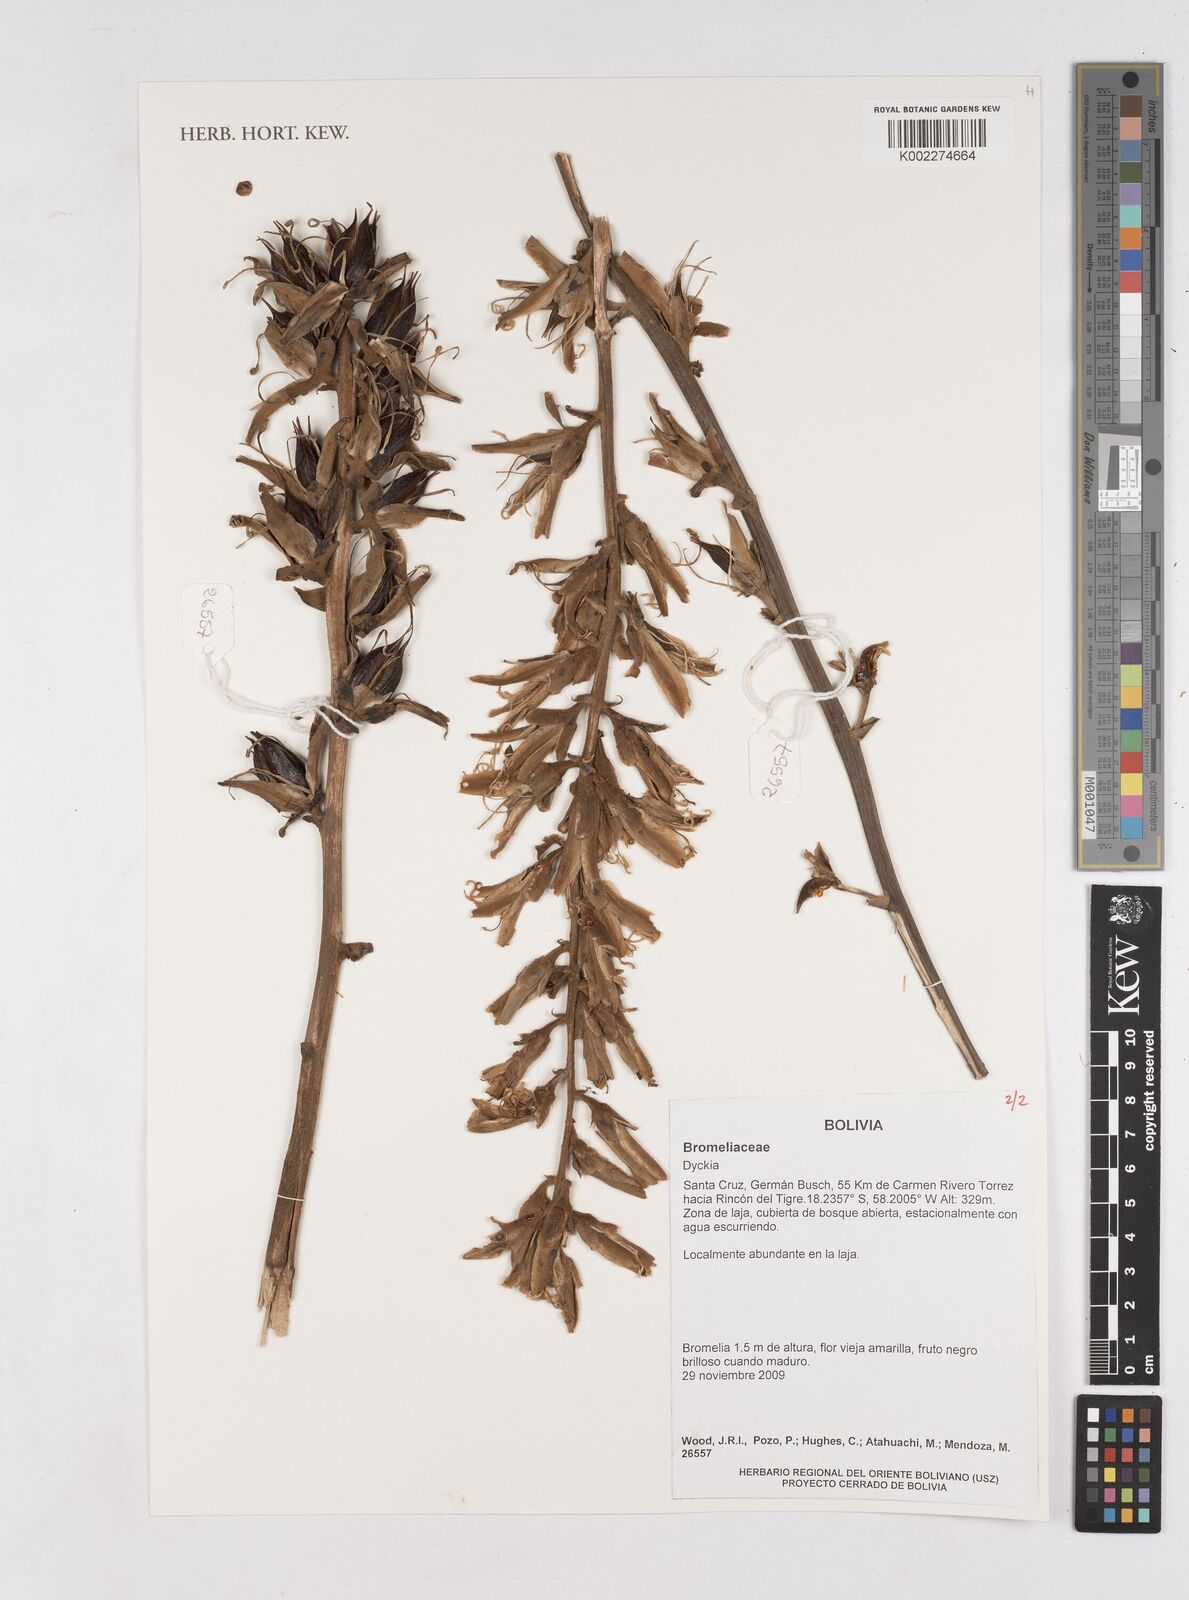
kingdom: Plantae
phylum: Tracheophyta
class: Liliopsida
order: Poales
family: Bromeliaceae
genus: Dyckia
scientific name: Dyckia
